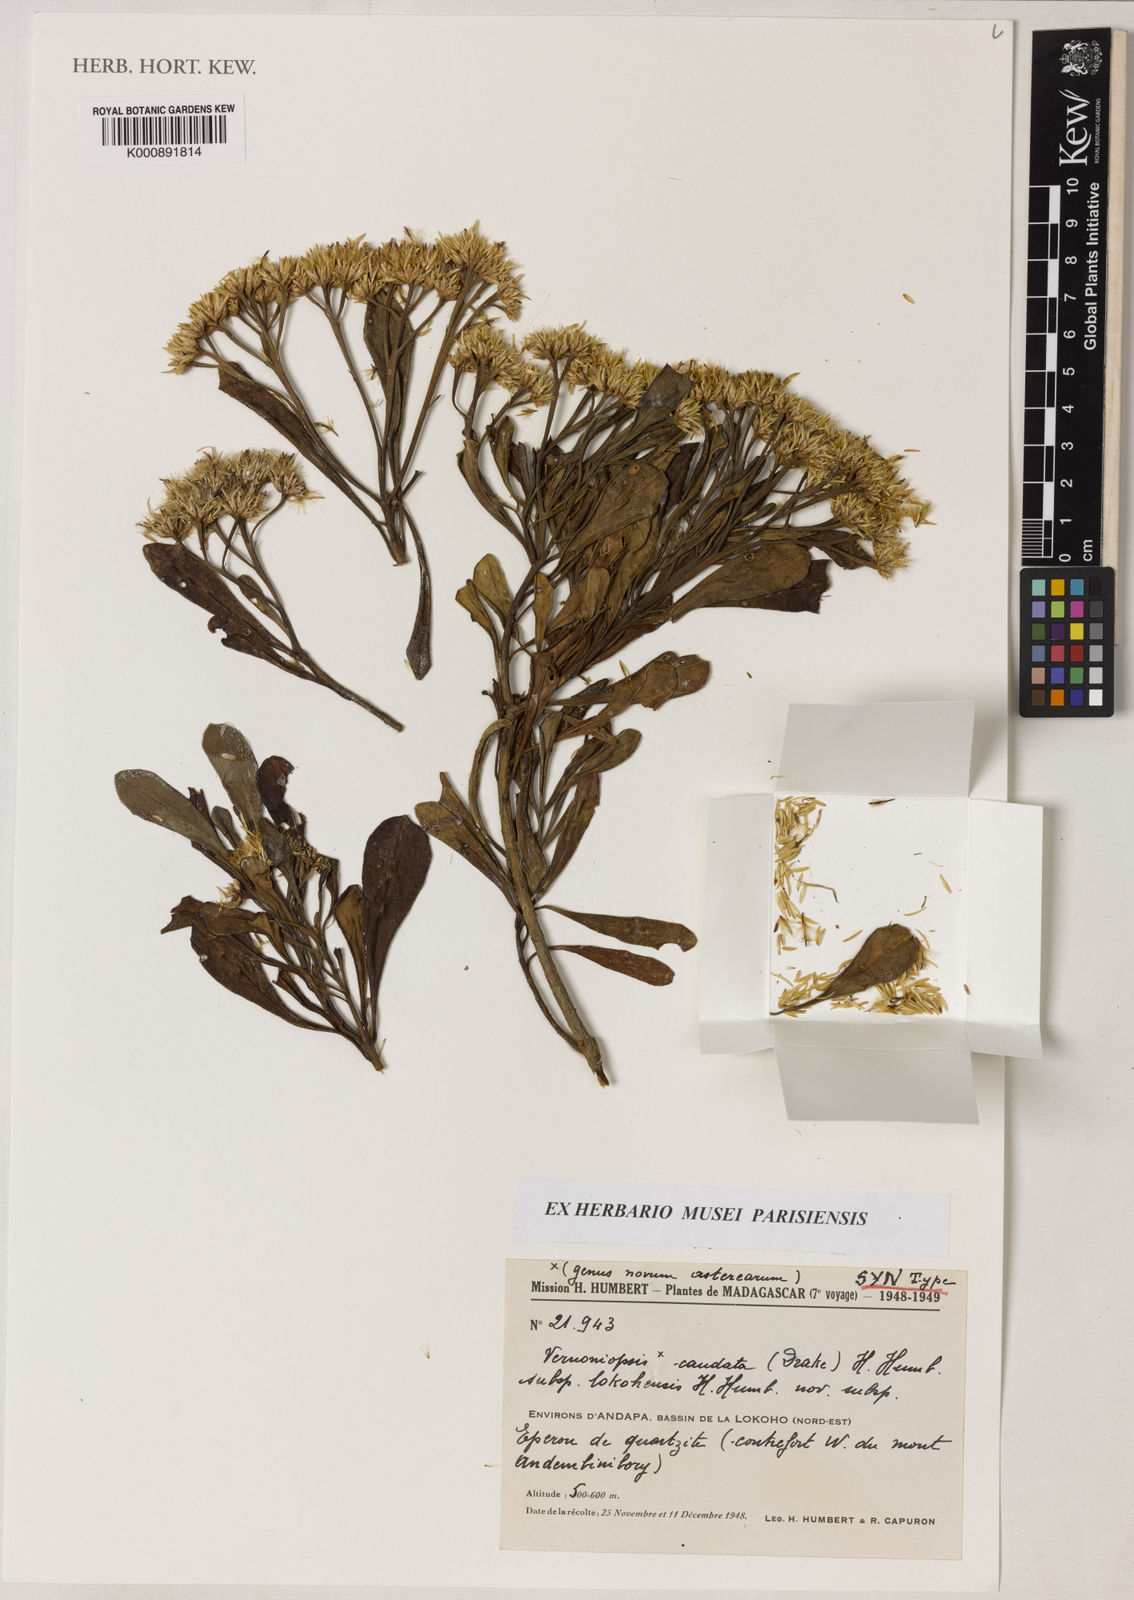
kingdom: Plantae
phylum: Tracheophyta
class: Magnoliopsida
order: Asterales
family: Asteraceae
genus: Vernoniopsis
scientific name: Vernoniopsis caudata
